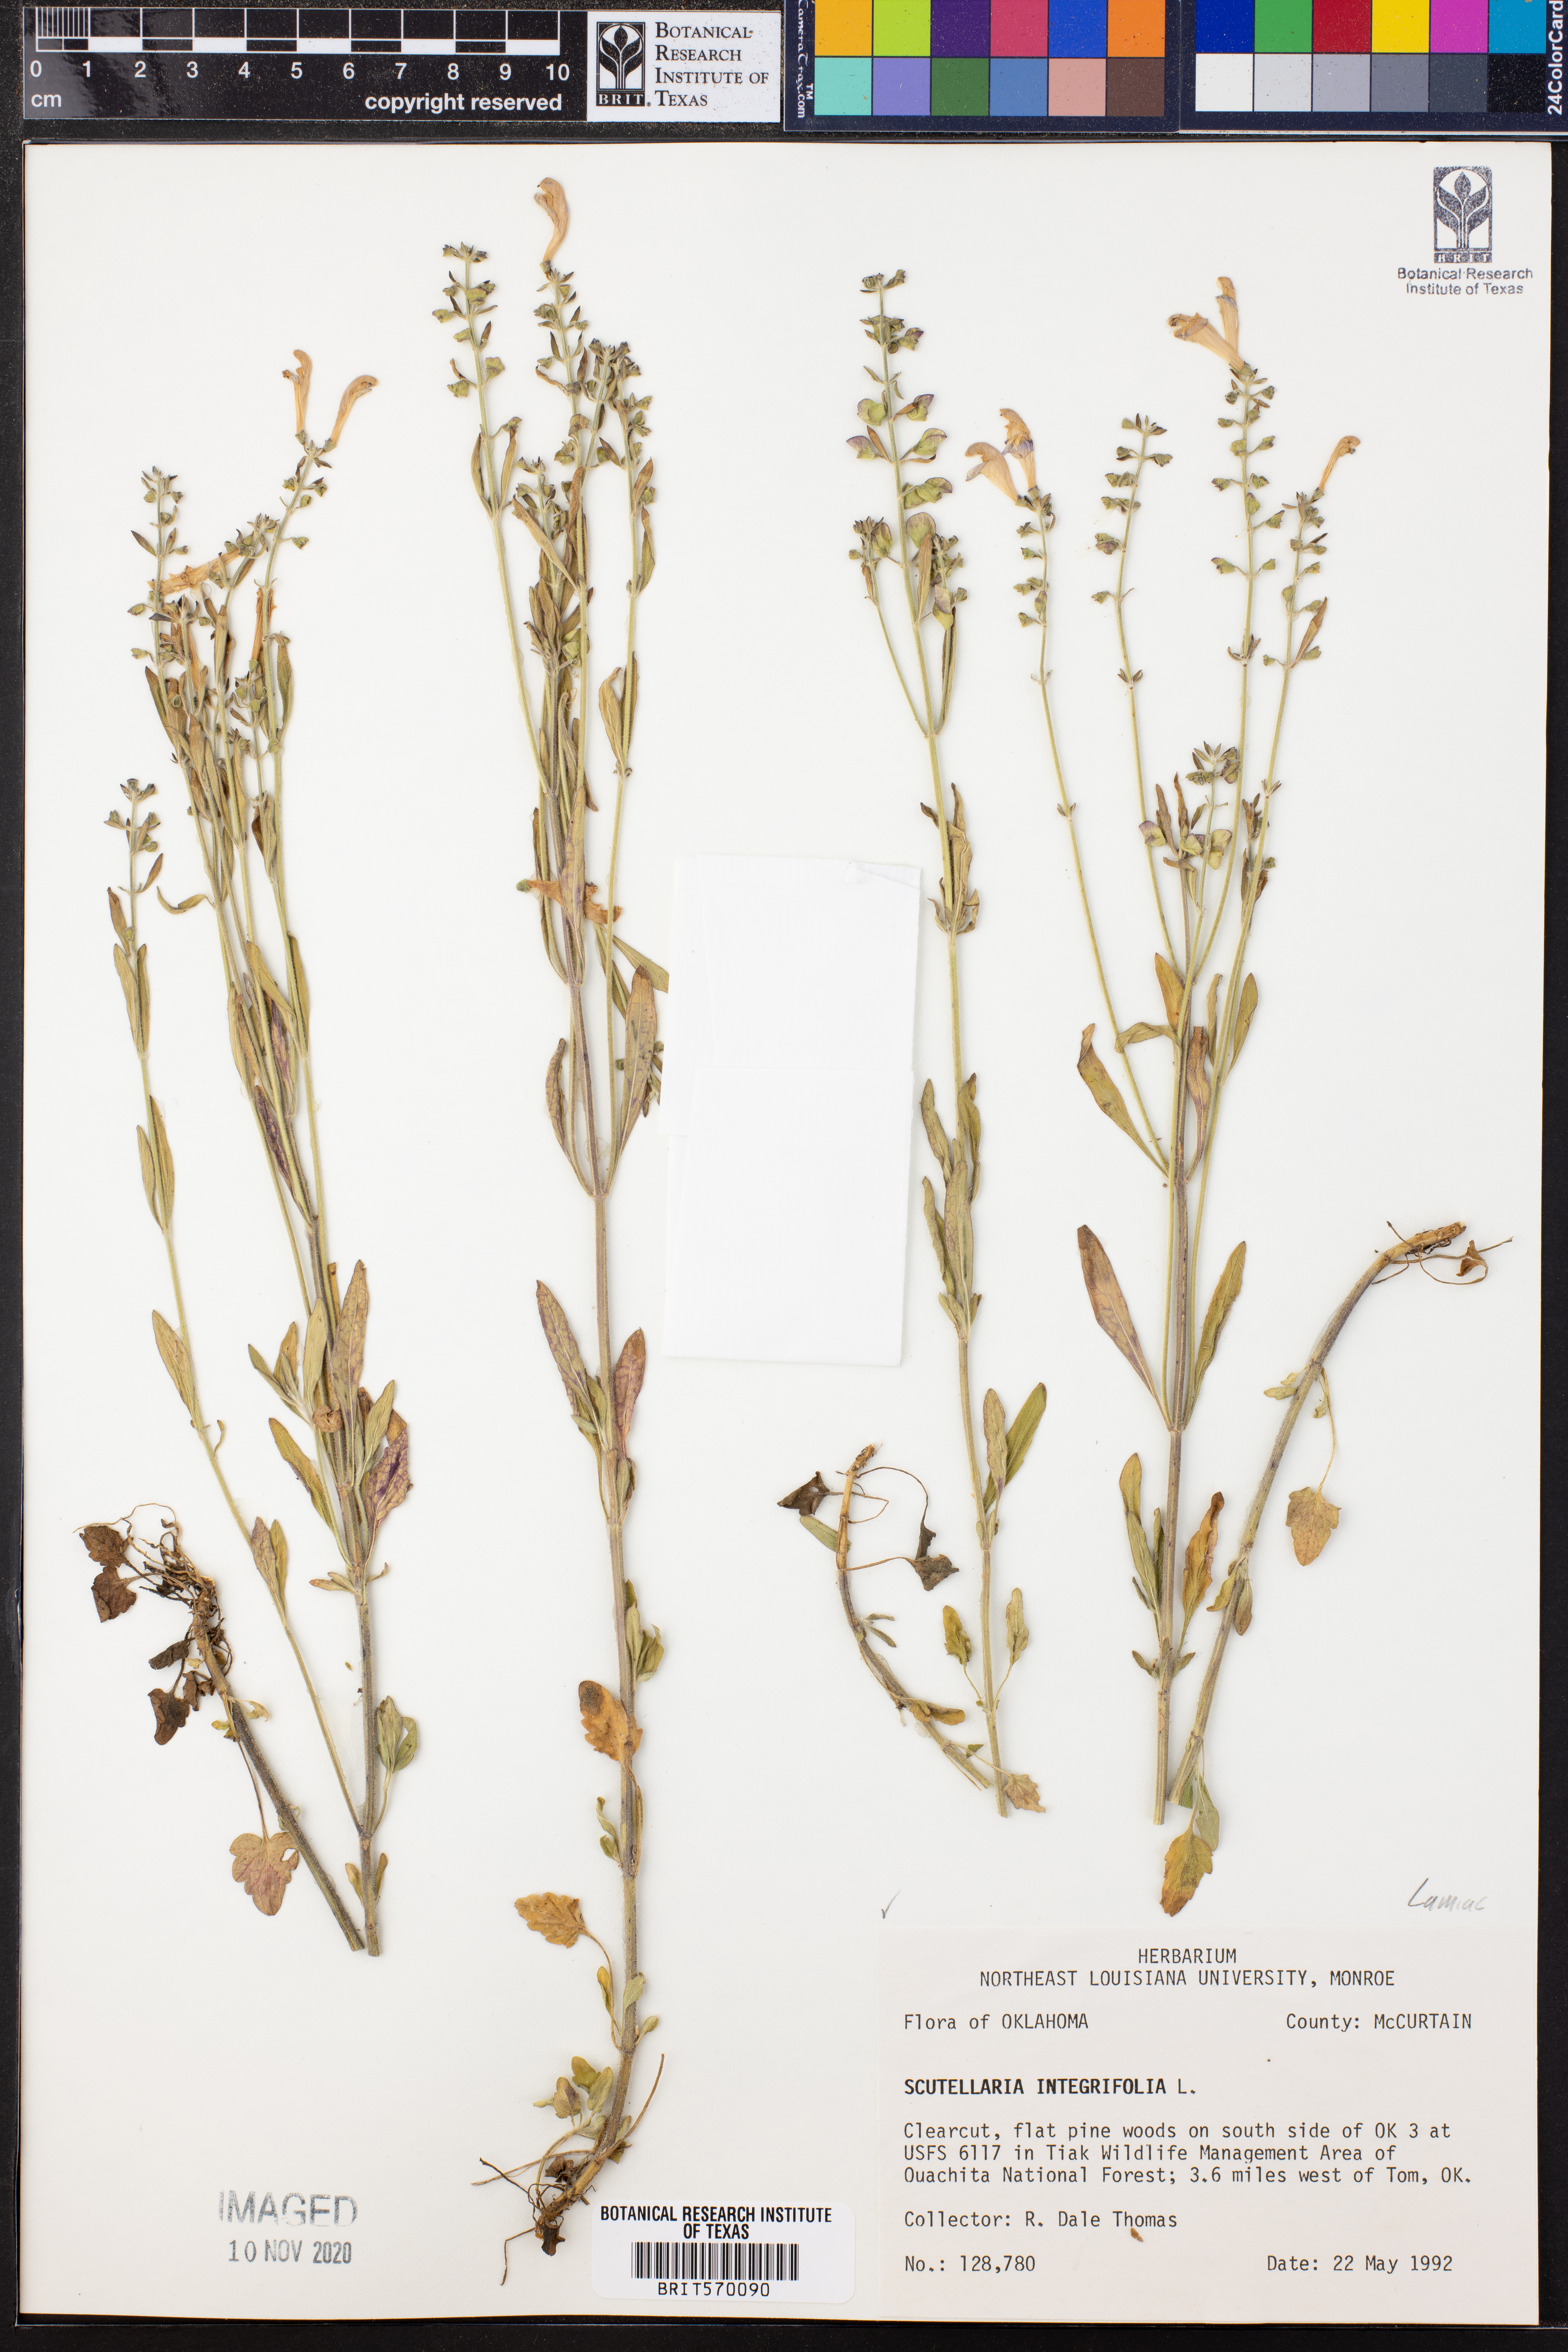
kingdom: Plantae
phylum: Tracheophyta
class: Magnoliopsida
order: Lamiales
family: Lamiaceae
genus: Scutellaria
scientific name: Scutellaria integrifolia
